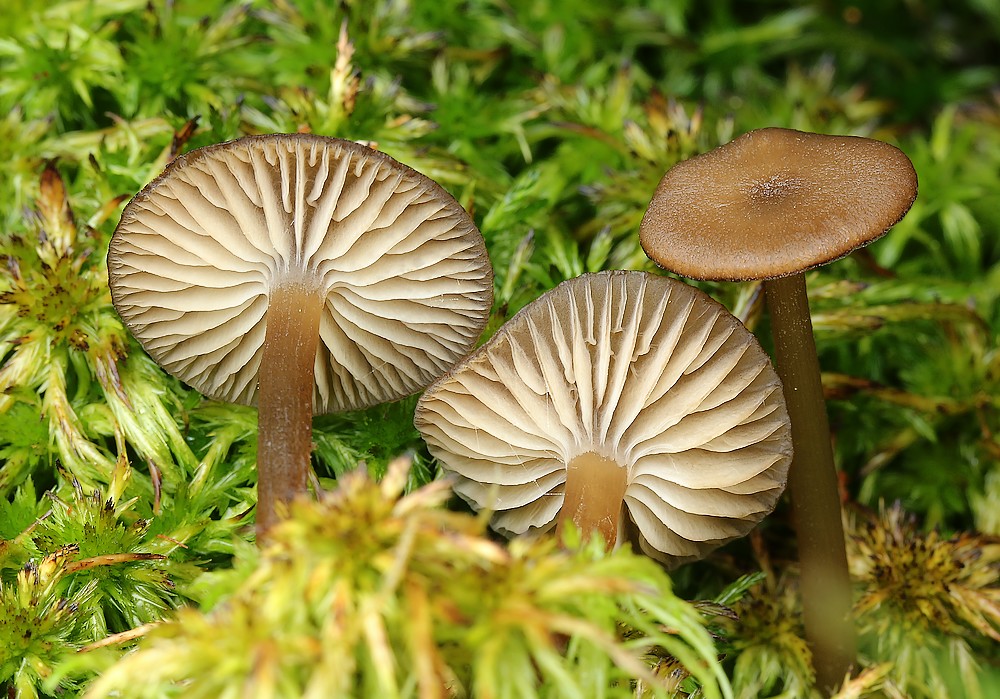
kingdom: Fungi
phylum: Basidiomycota
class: Agaricomycetes
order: Agaricales
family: Lyophyllaceae
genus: Sphagnurus
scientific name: Sphagnurus paluster
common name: tørvemos-gråblad
